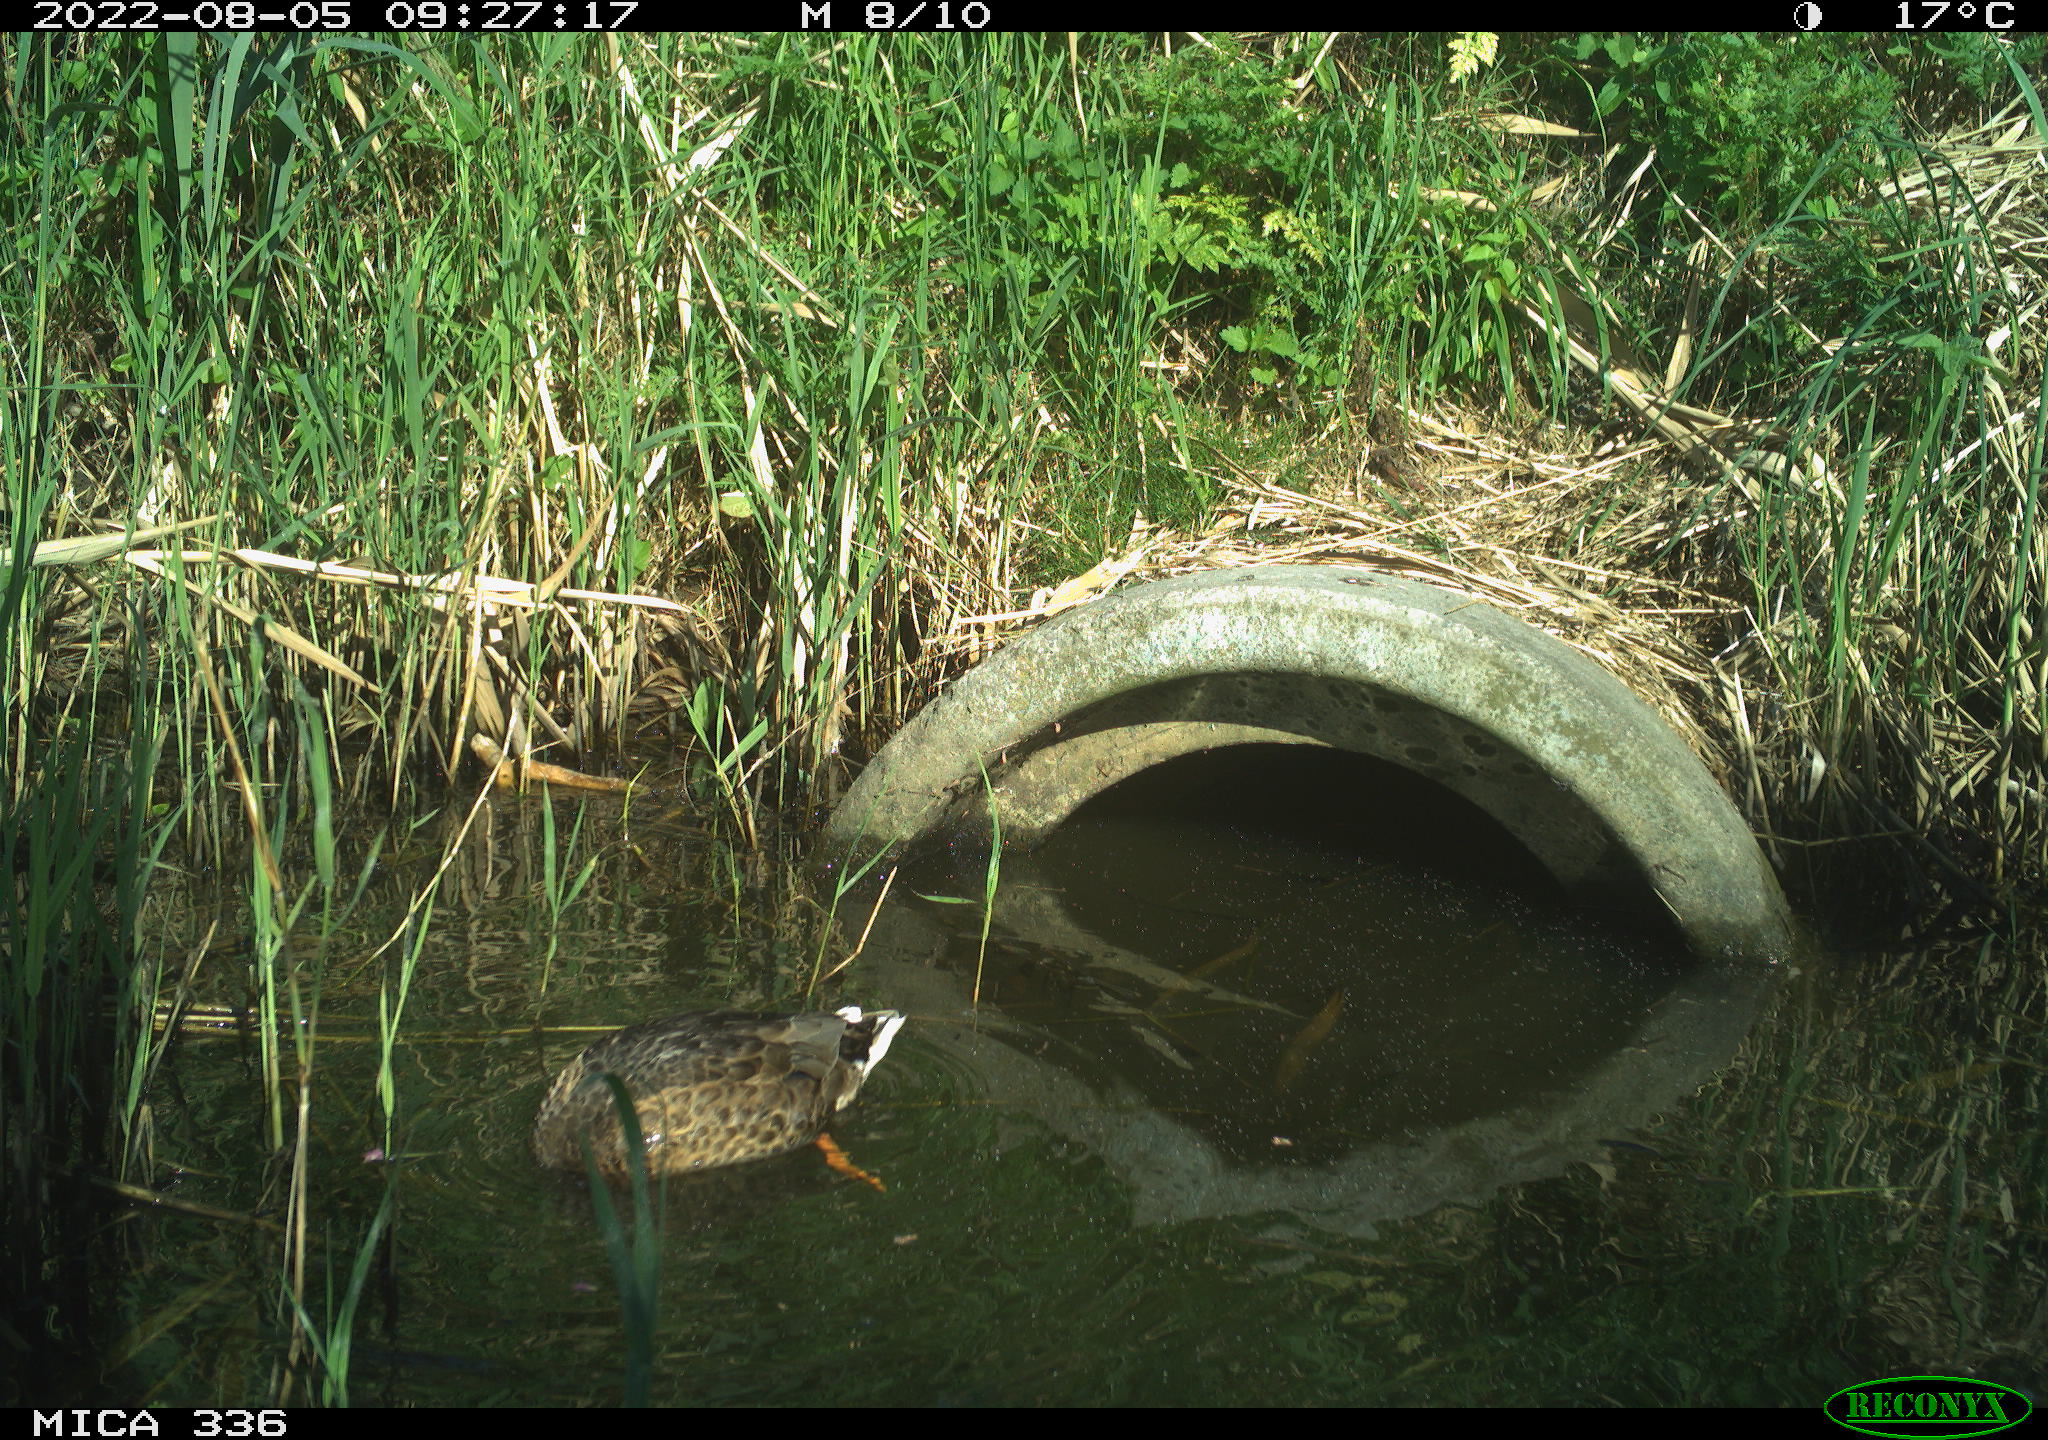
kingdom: Animalia
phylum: Chordata
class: Aves
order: Anseriformes
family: Anatidae
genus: Anas
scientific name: Anas platyrhynchos
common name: Mallard
